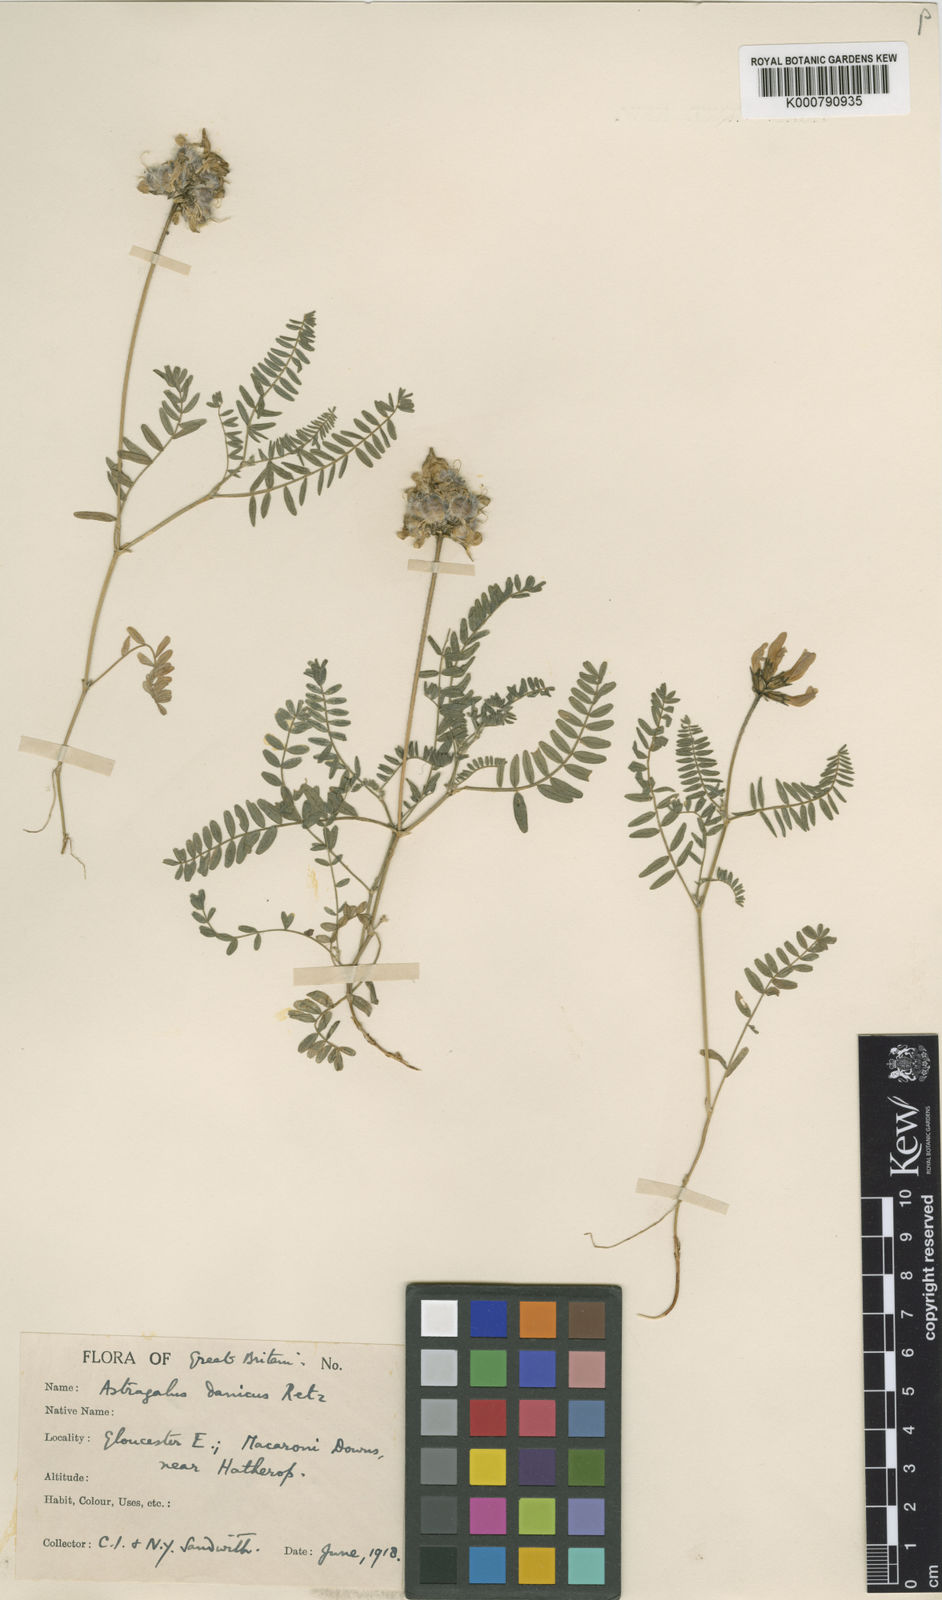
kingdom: Plantae
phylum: Tracheophyta
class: Magnoliopsida
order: Fabales
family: Fabaceae
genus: Astragalus
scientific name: Astragalus danicus
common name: Purple milk-vetch
